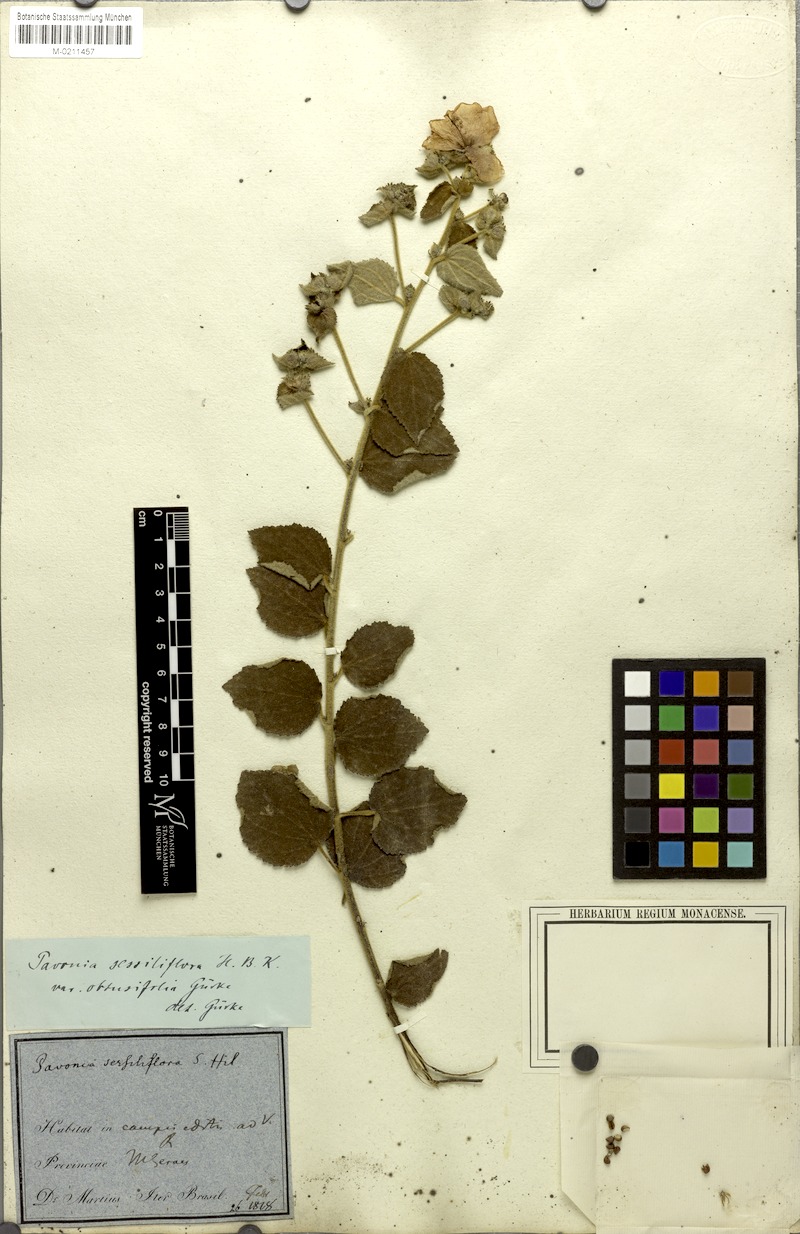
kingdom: Plantae
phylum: Tracheophyta
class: Magnoliopsida
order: Malvales
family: Malvaceae
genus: Peltaea
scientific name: Peltaea trinervis
